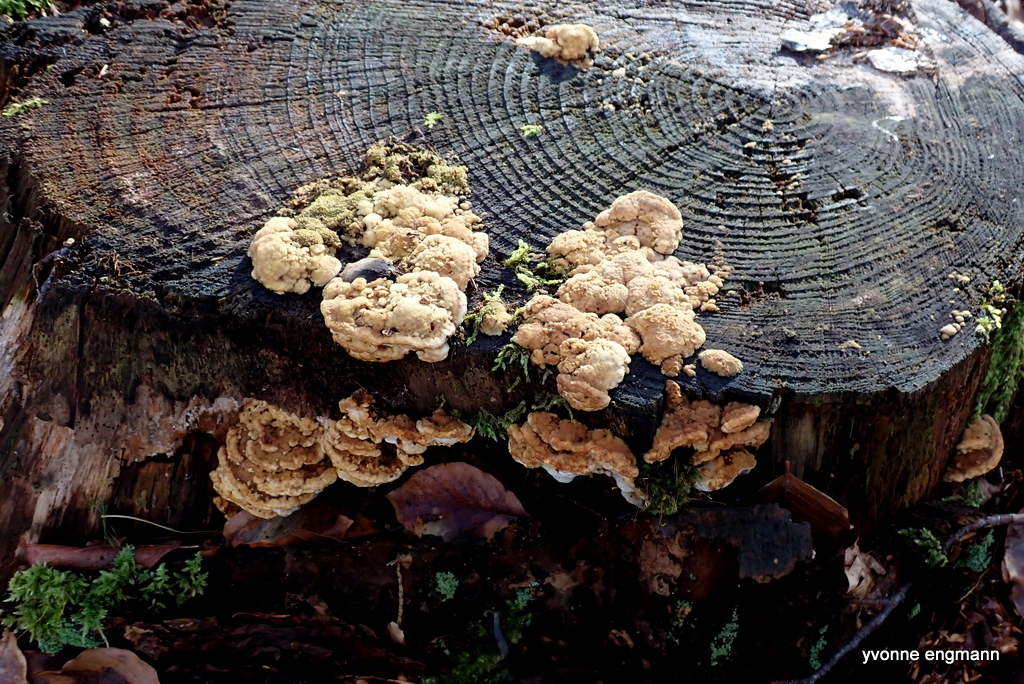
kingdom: Fungi
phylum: Basidiomycota
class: Agaricomycetes
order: Polyporales
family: Fomitopsidaceae
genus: Neoantrodia
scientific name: Neoantrodia serialis
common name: række-sejporesvamp
